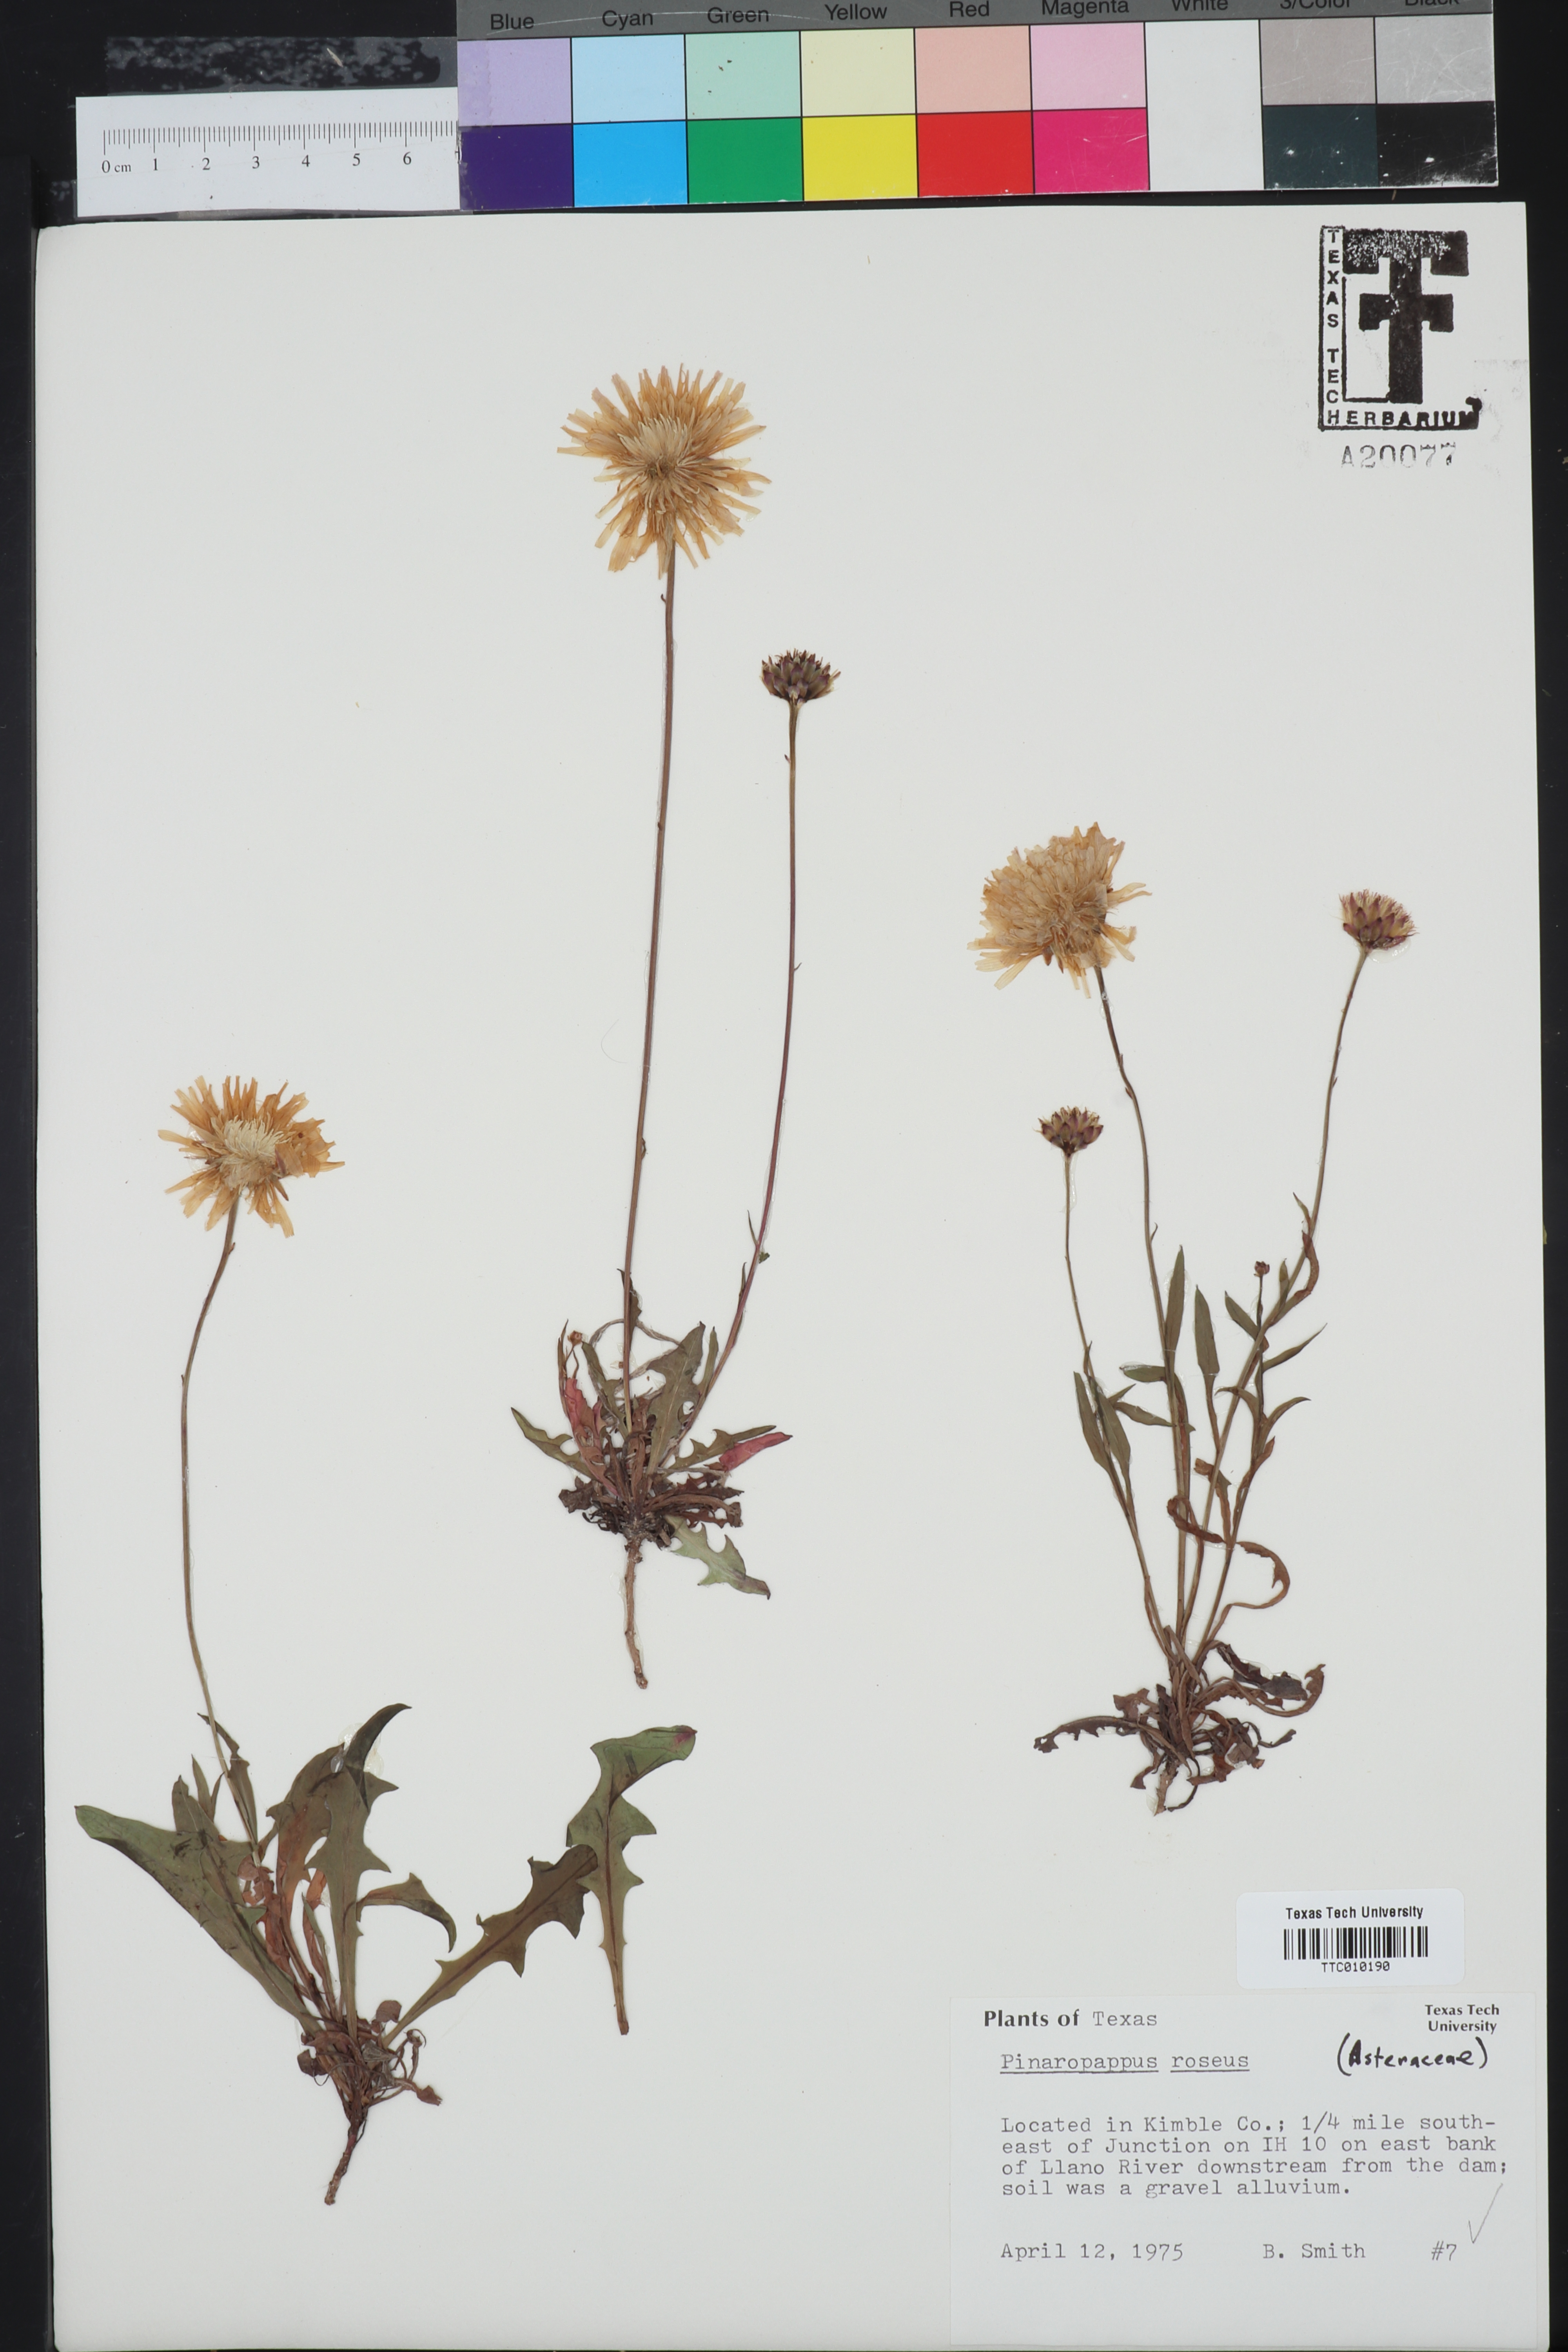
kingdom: Plantae
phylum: Tracheophyta
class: Magnoliopsida
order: Asterales
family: Asteraceae
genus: Pinaropappus
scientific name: Pinaropappus roseus
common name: Rock-lettuce
